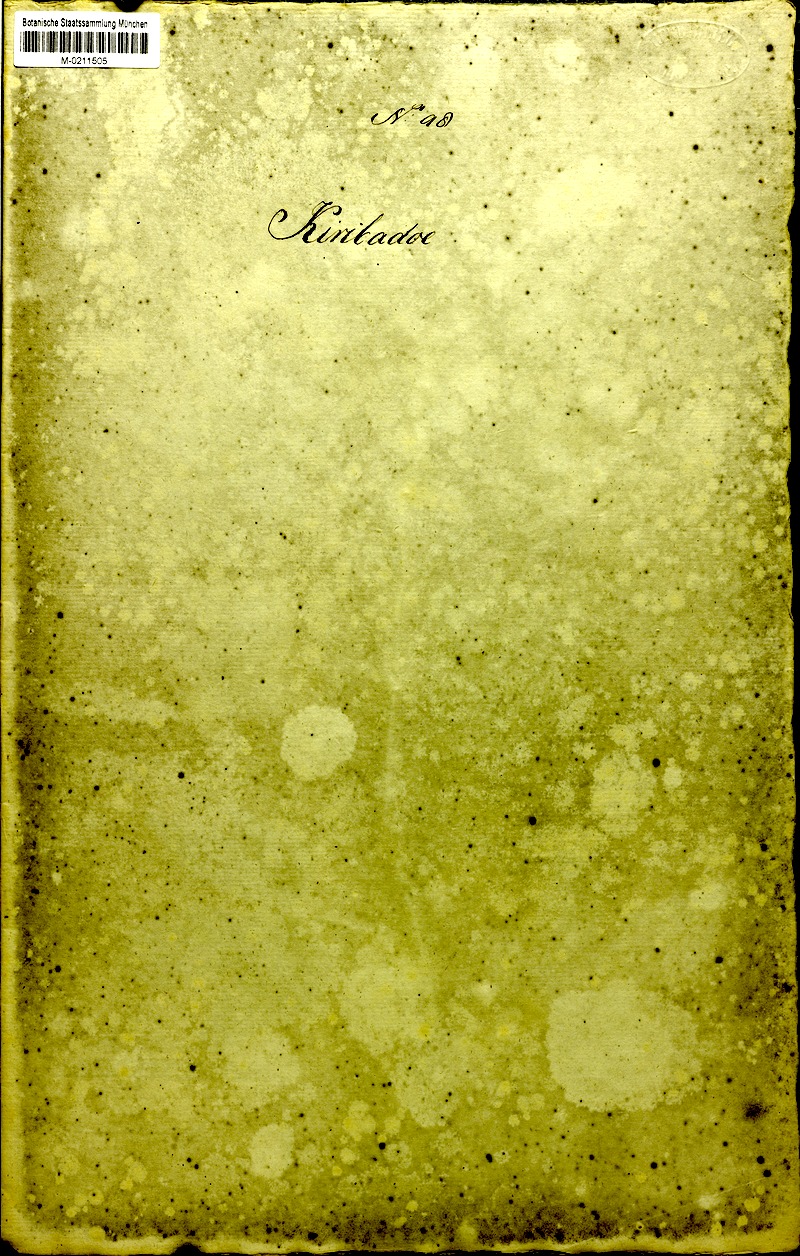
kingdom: Plantae
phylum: Tracheophyta
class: Magnoliopsida
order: Malvales
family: Malvaceae
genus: Gossypium
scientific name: Gossypium arboreum
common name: Tree cotton
